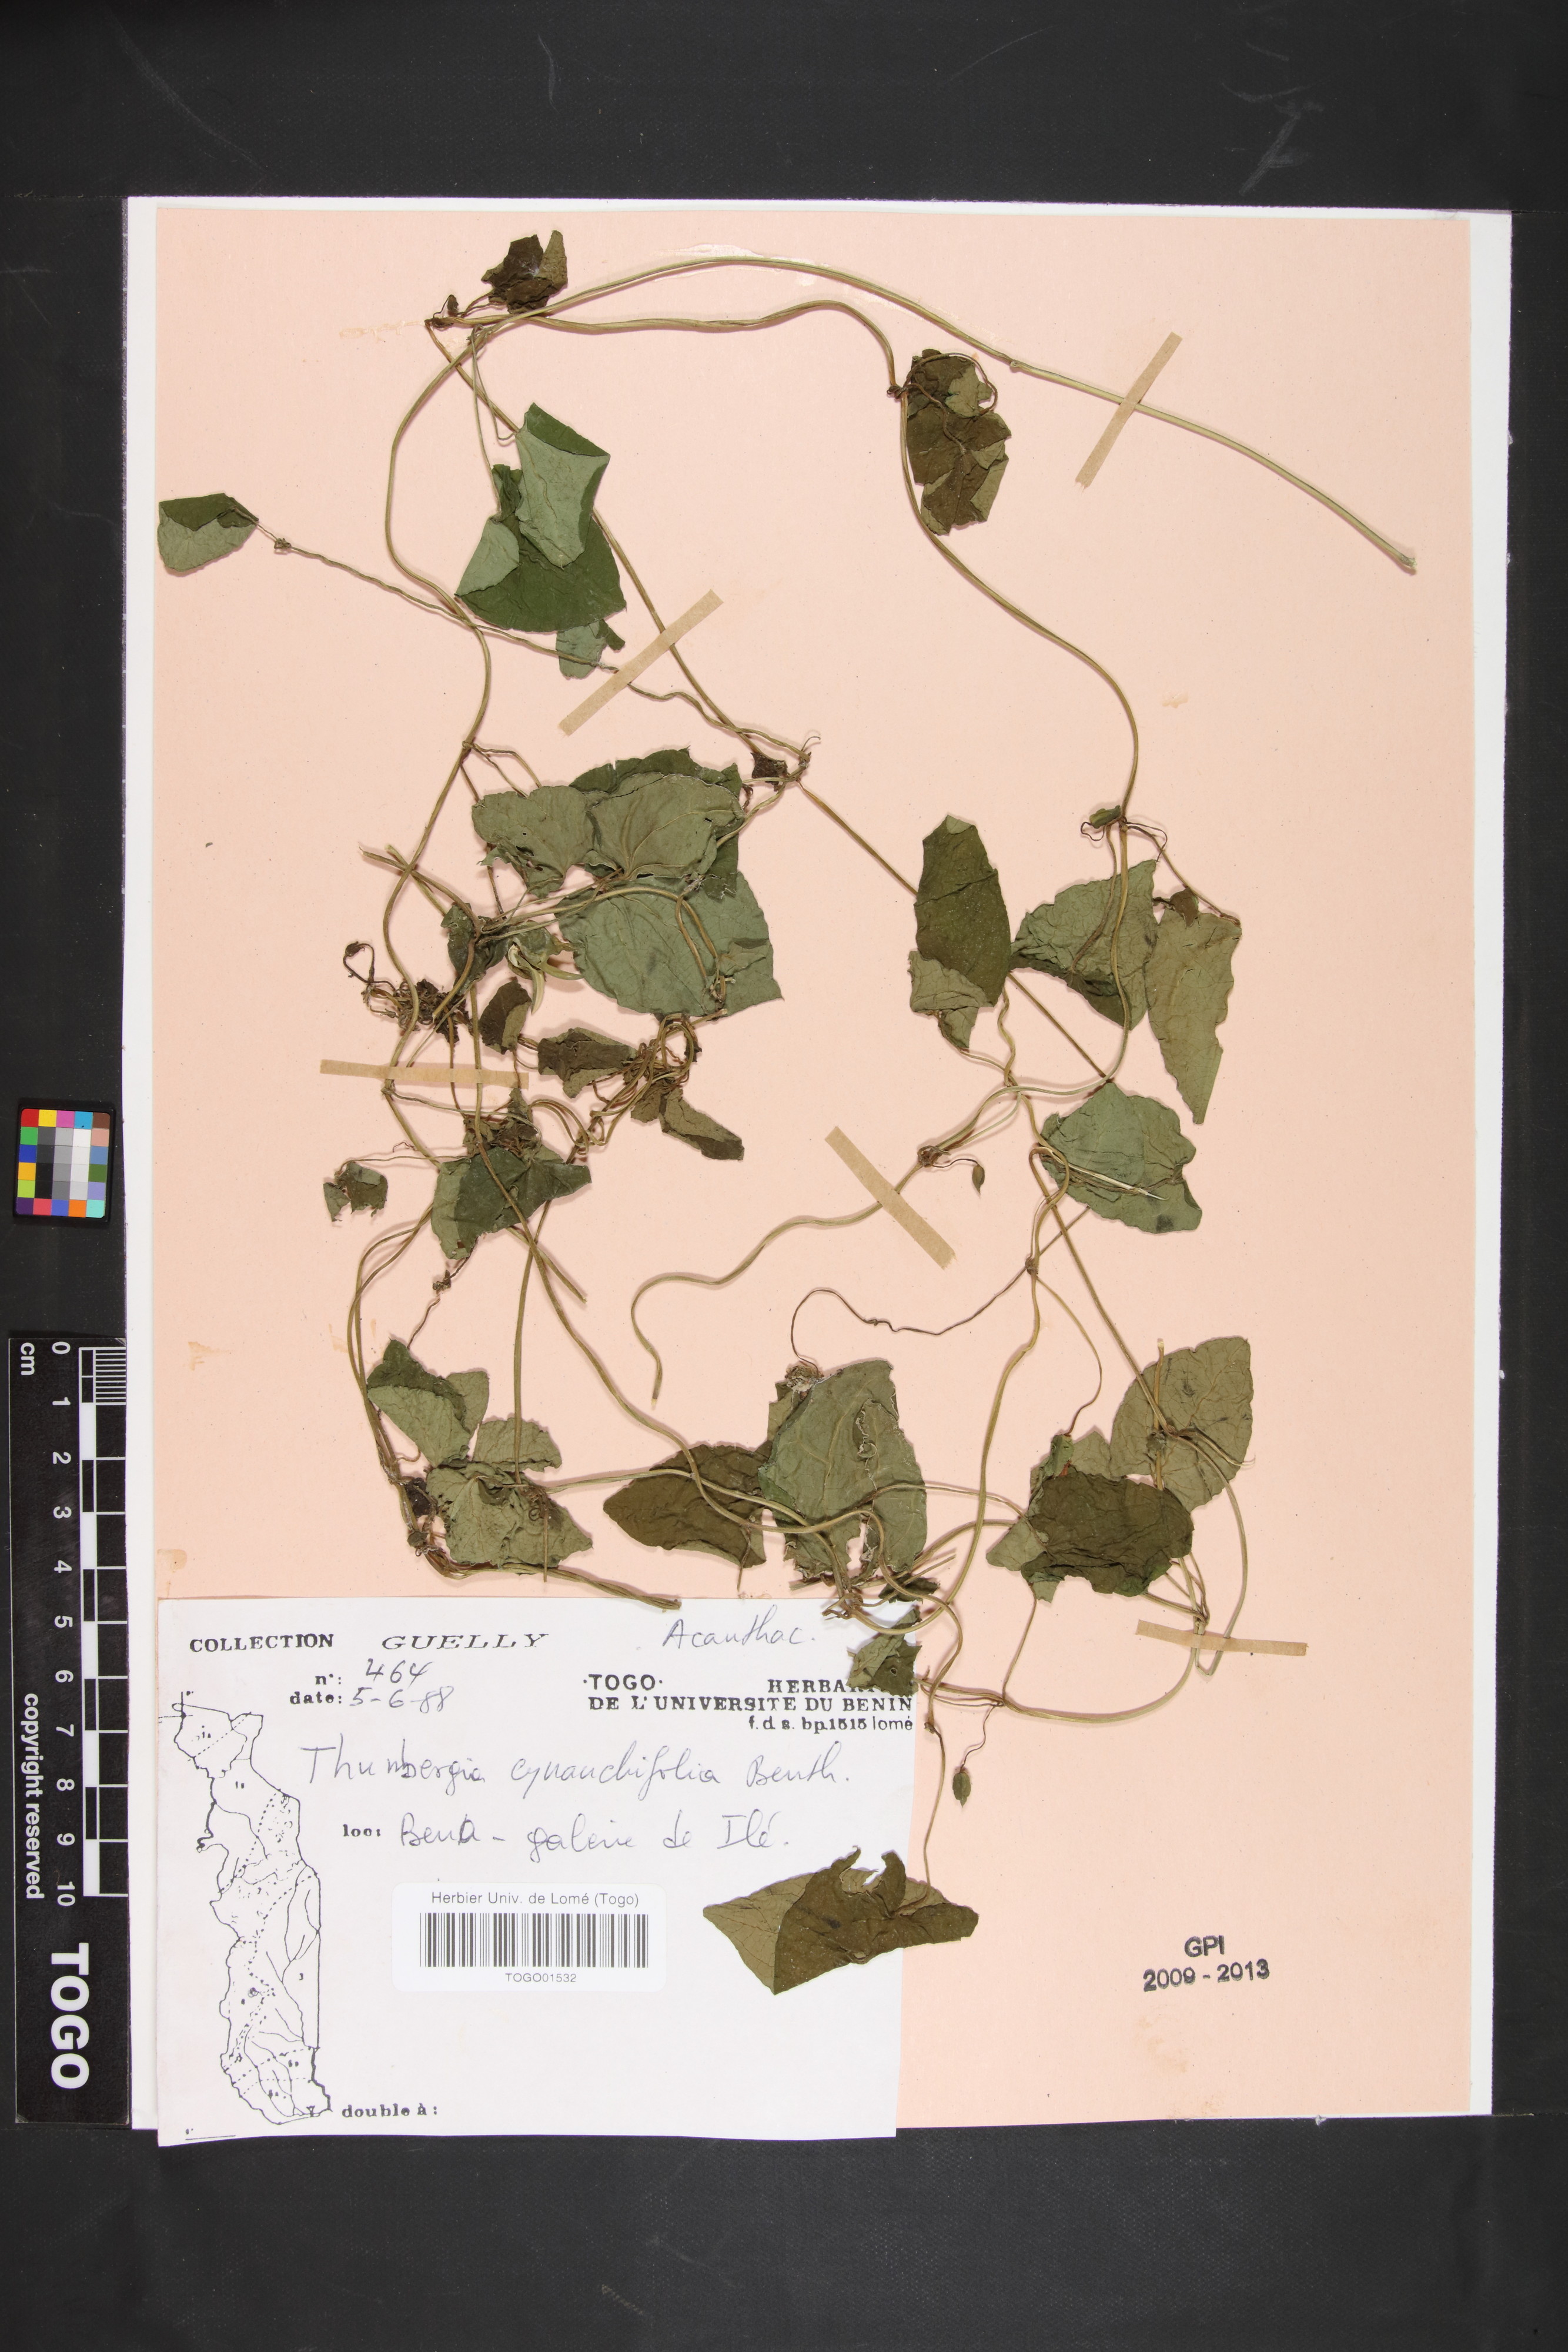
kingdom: Plantae
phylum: Tracheophyta
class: Magnoliopsida
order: Lamiales
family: Acanthaceae
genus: Thunbergia
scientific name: Thunbergia cynanchifolia
